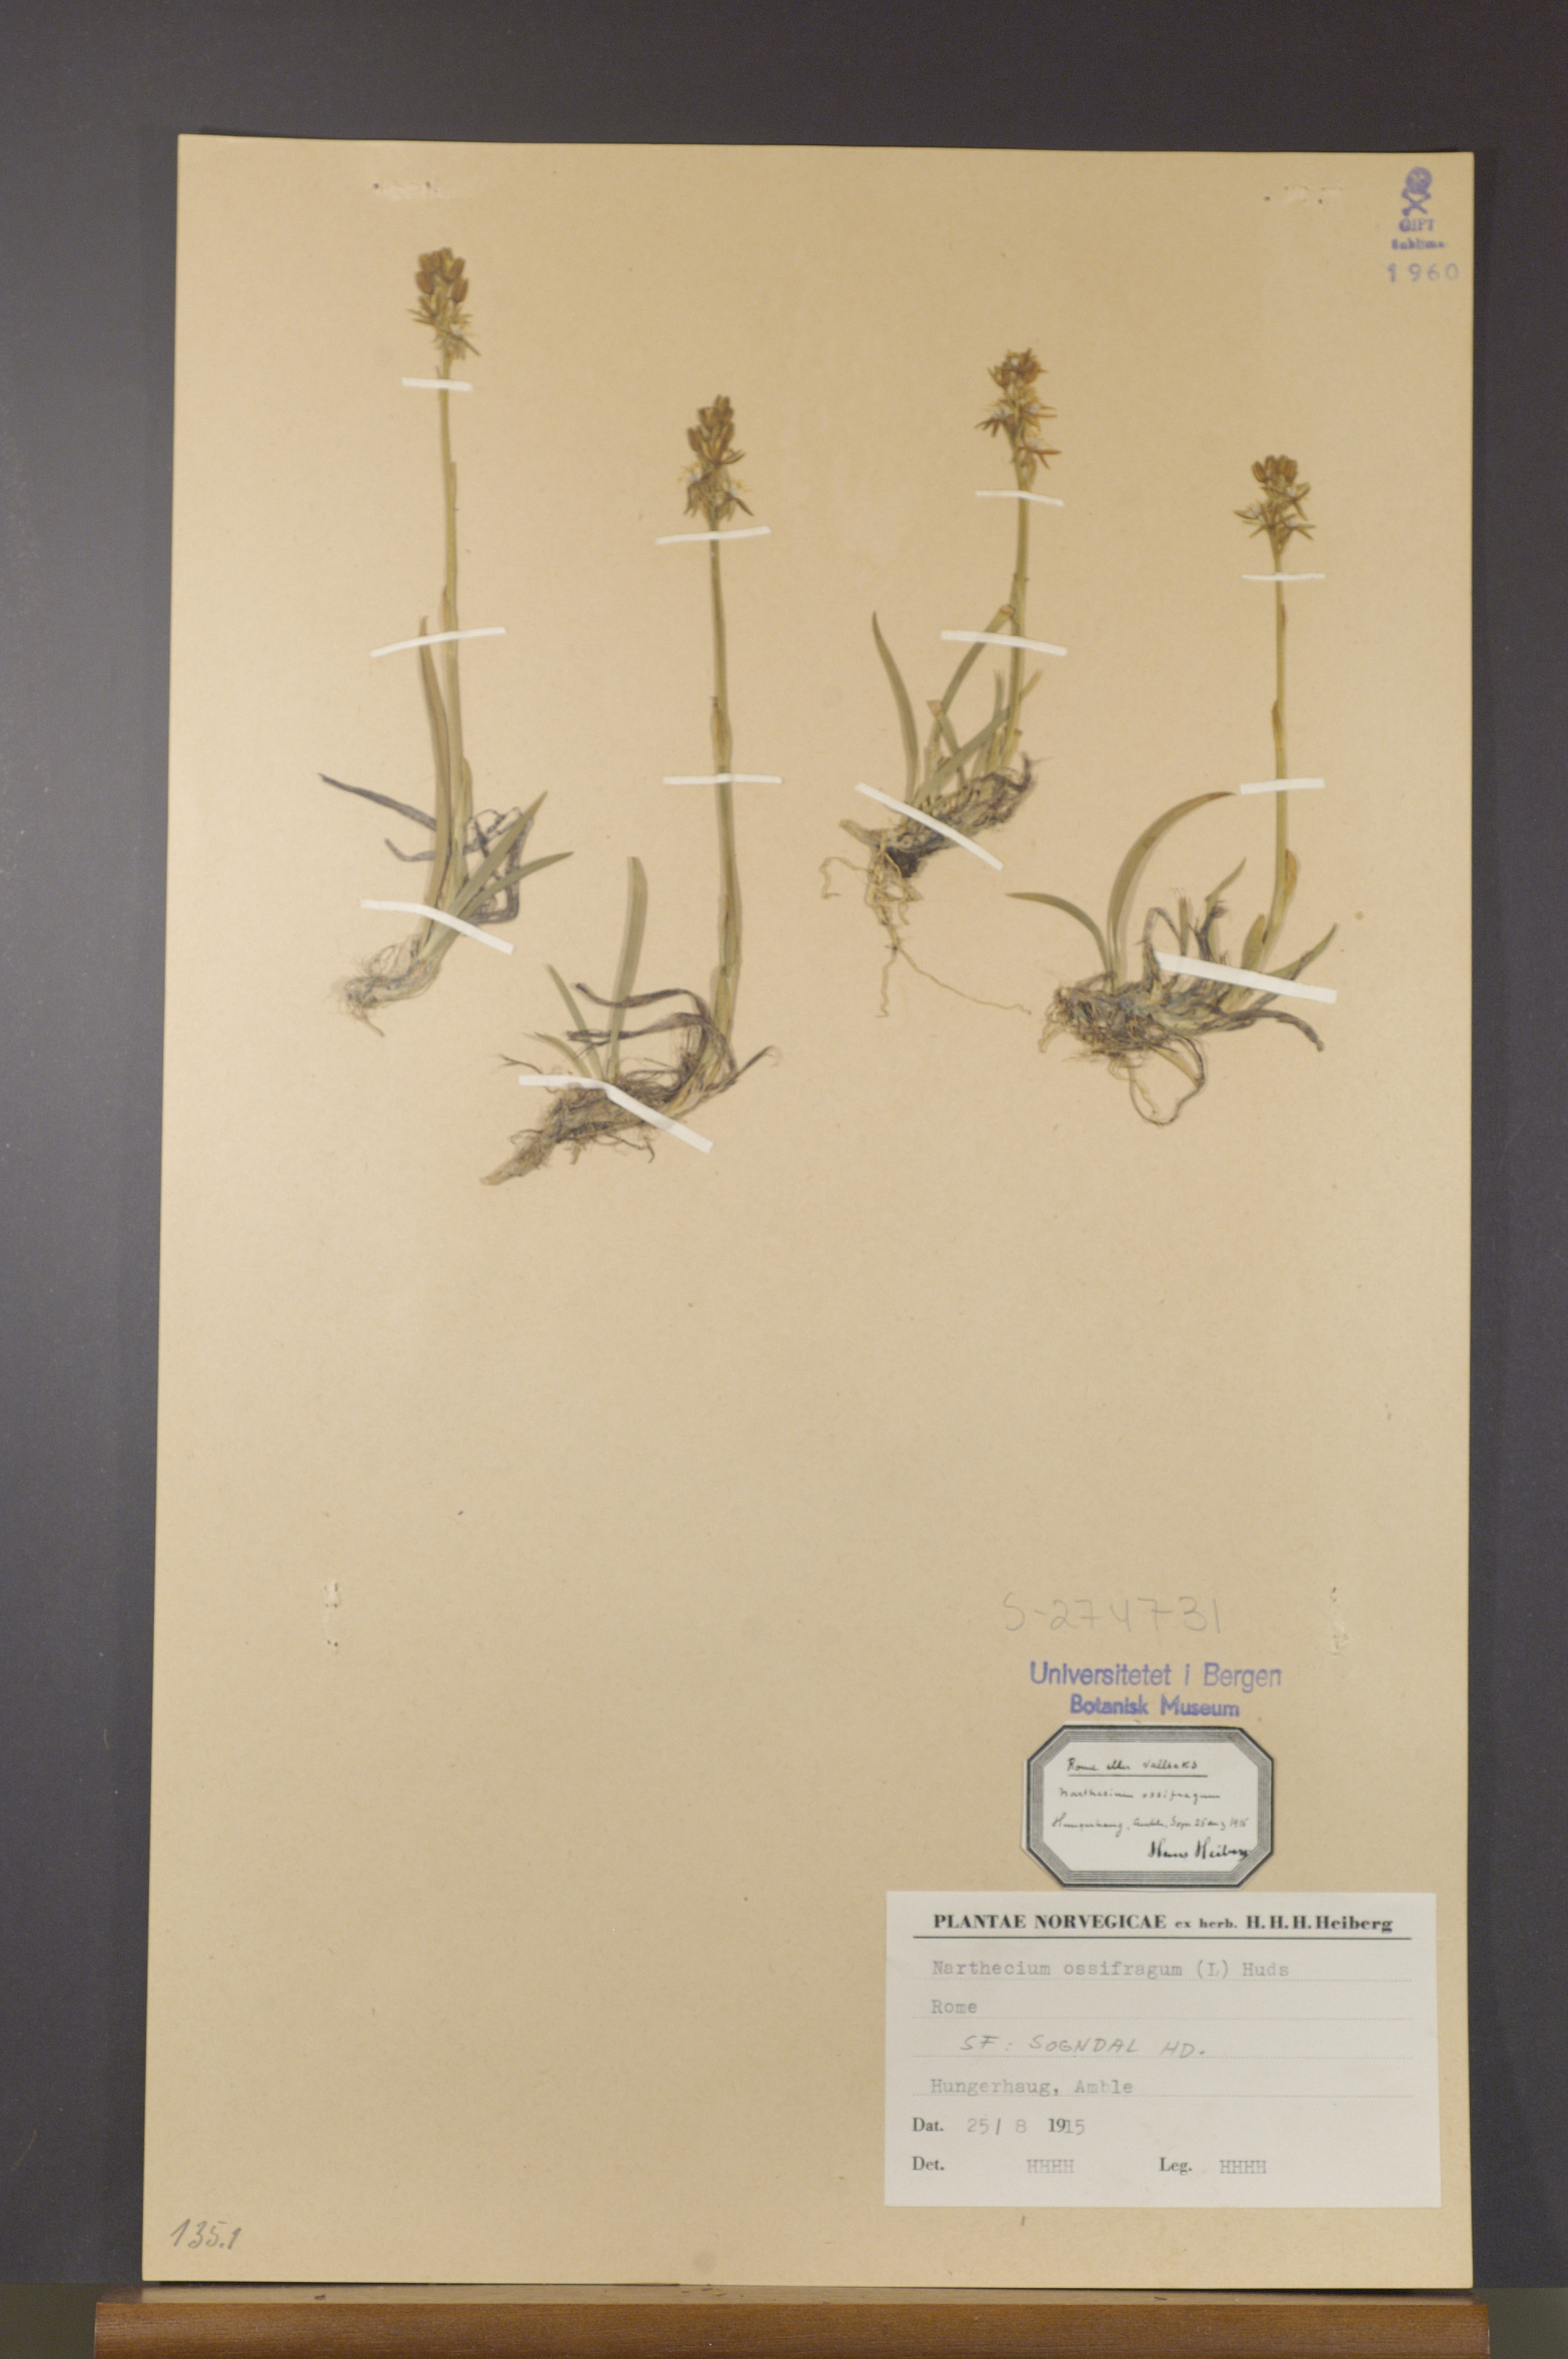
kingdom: Plantae
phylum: Tracheophyta
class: Liliopsida
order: Dioscoreales
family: Nartheciaceae
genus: Narthecium
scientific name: Narthecium ossifragum
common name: Bog asphodel
